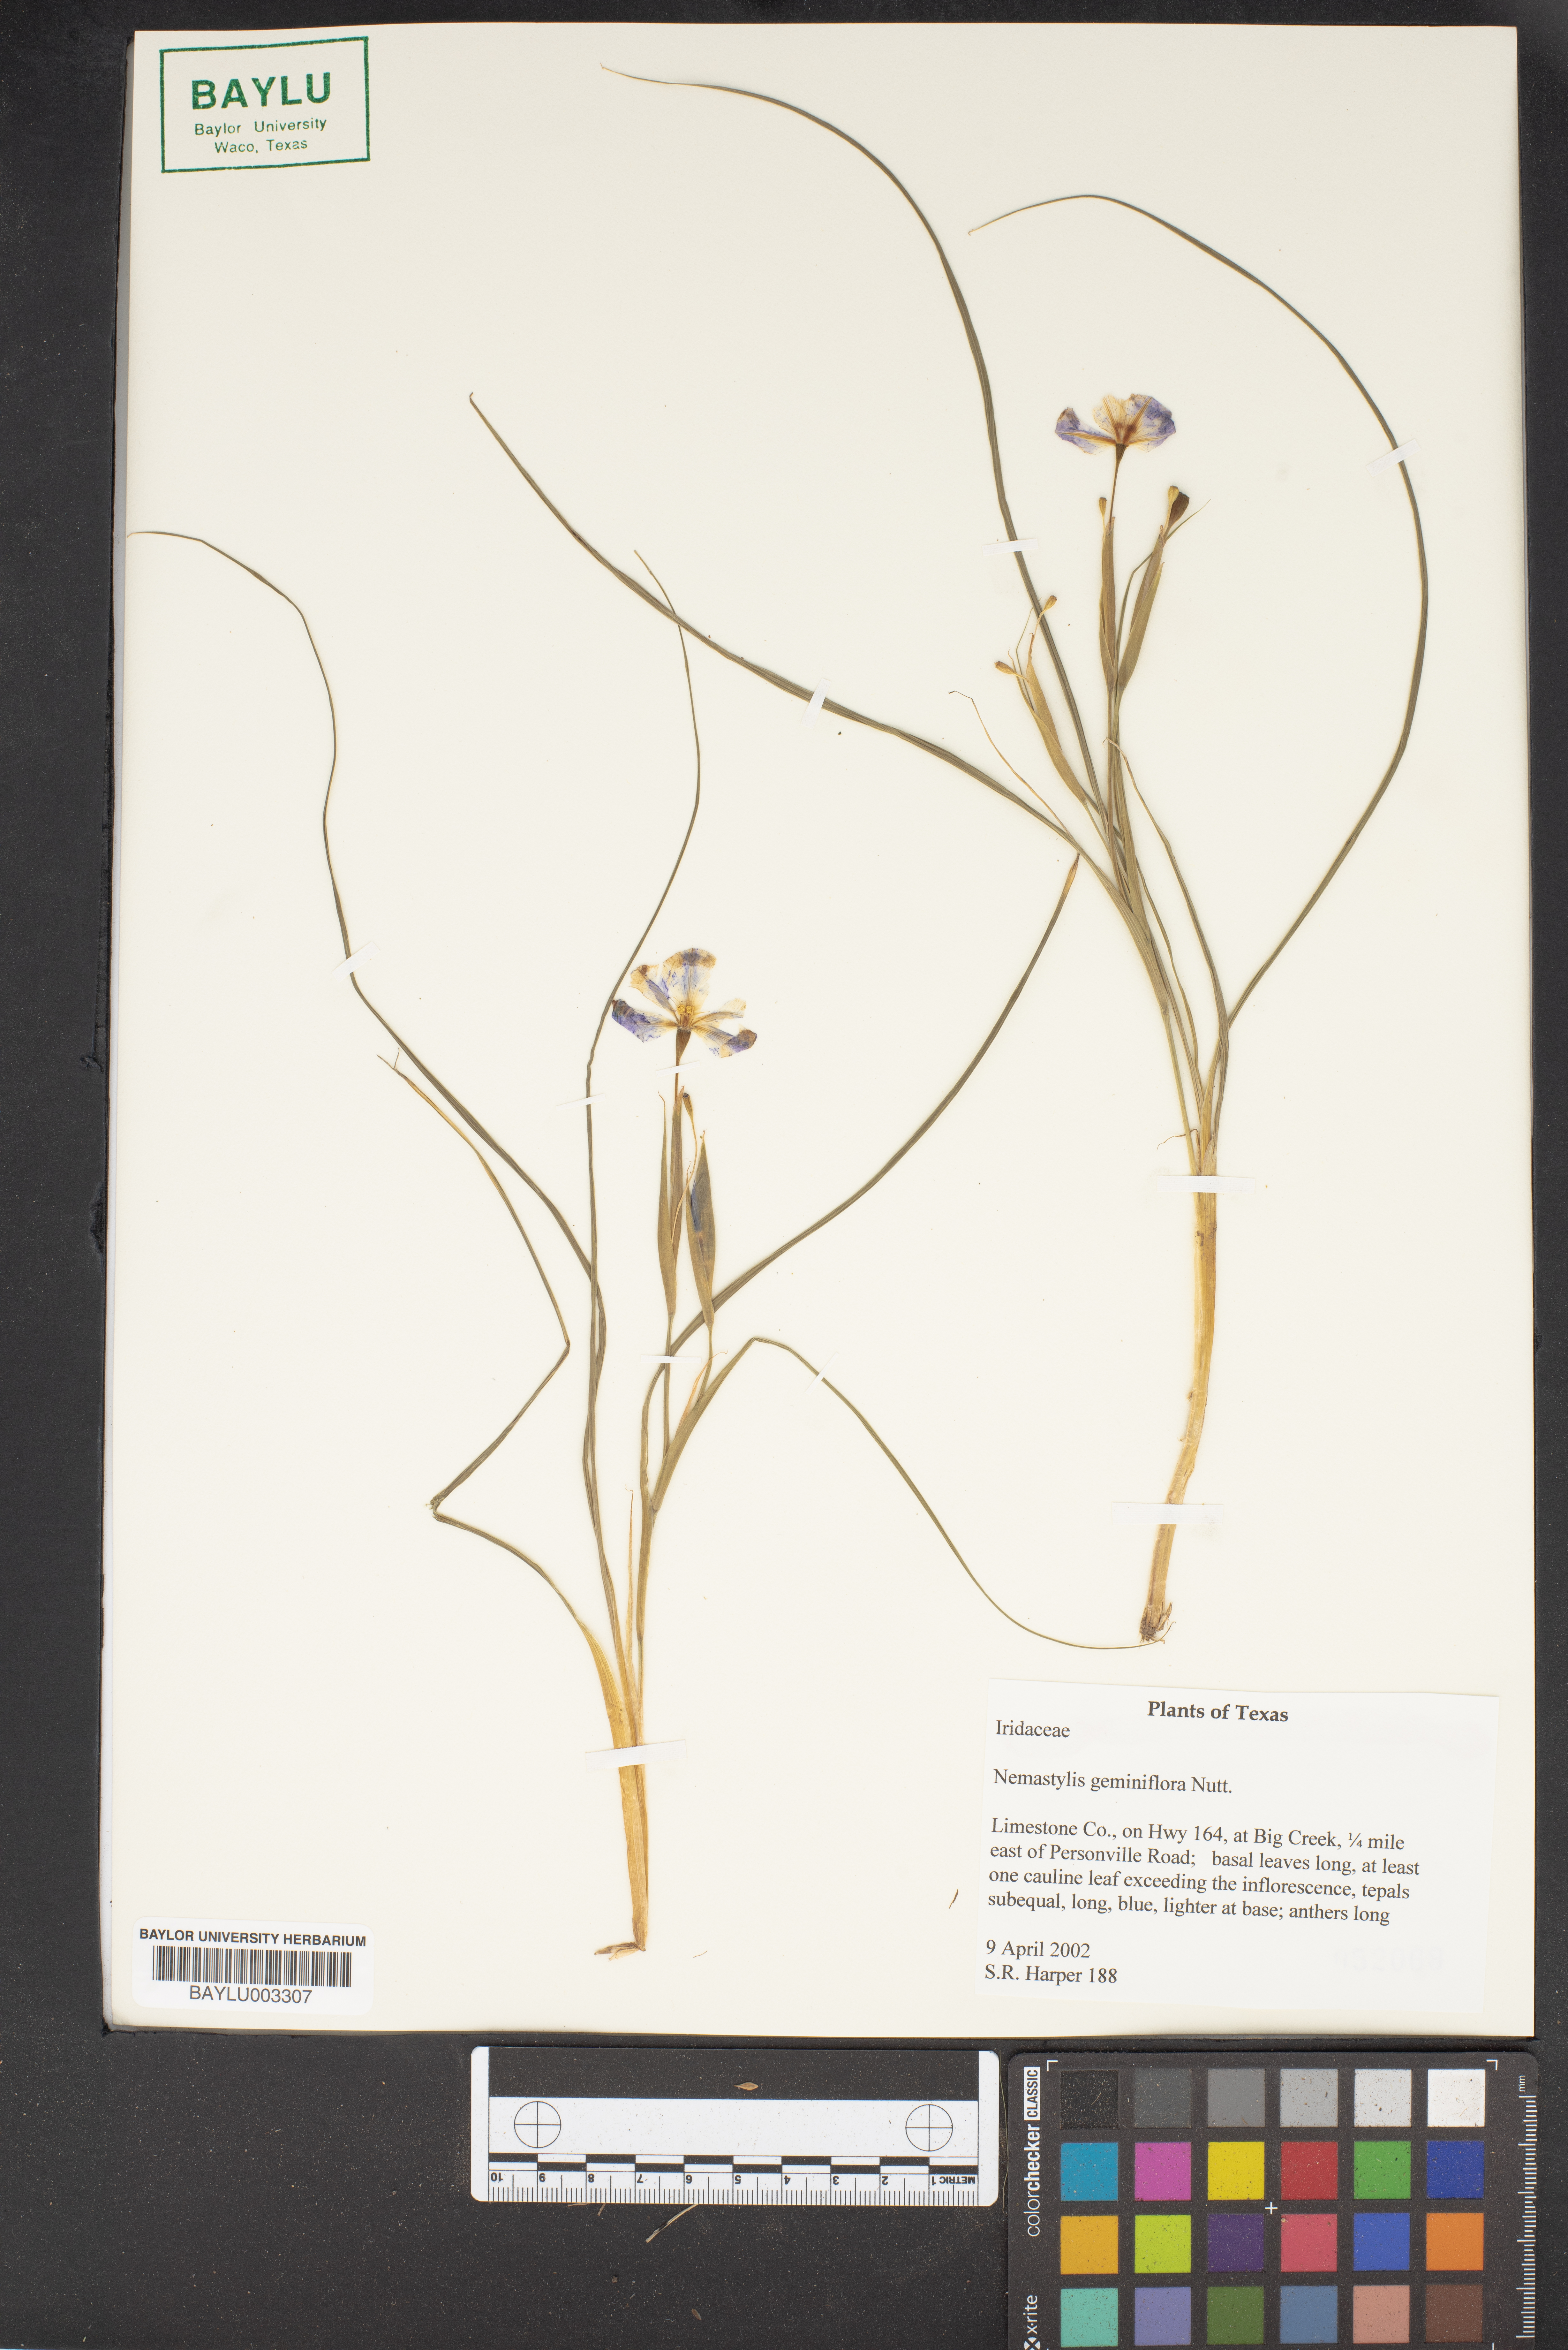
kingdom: Plantae
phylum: Tracheophyta
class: Liliopsida
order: Asparagales
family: Iridaceae
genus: Nemastylis
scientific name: Nemastylis geminiflora
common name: Prairie celestial
